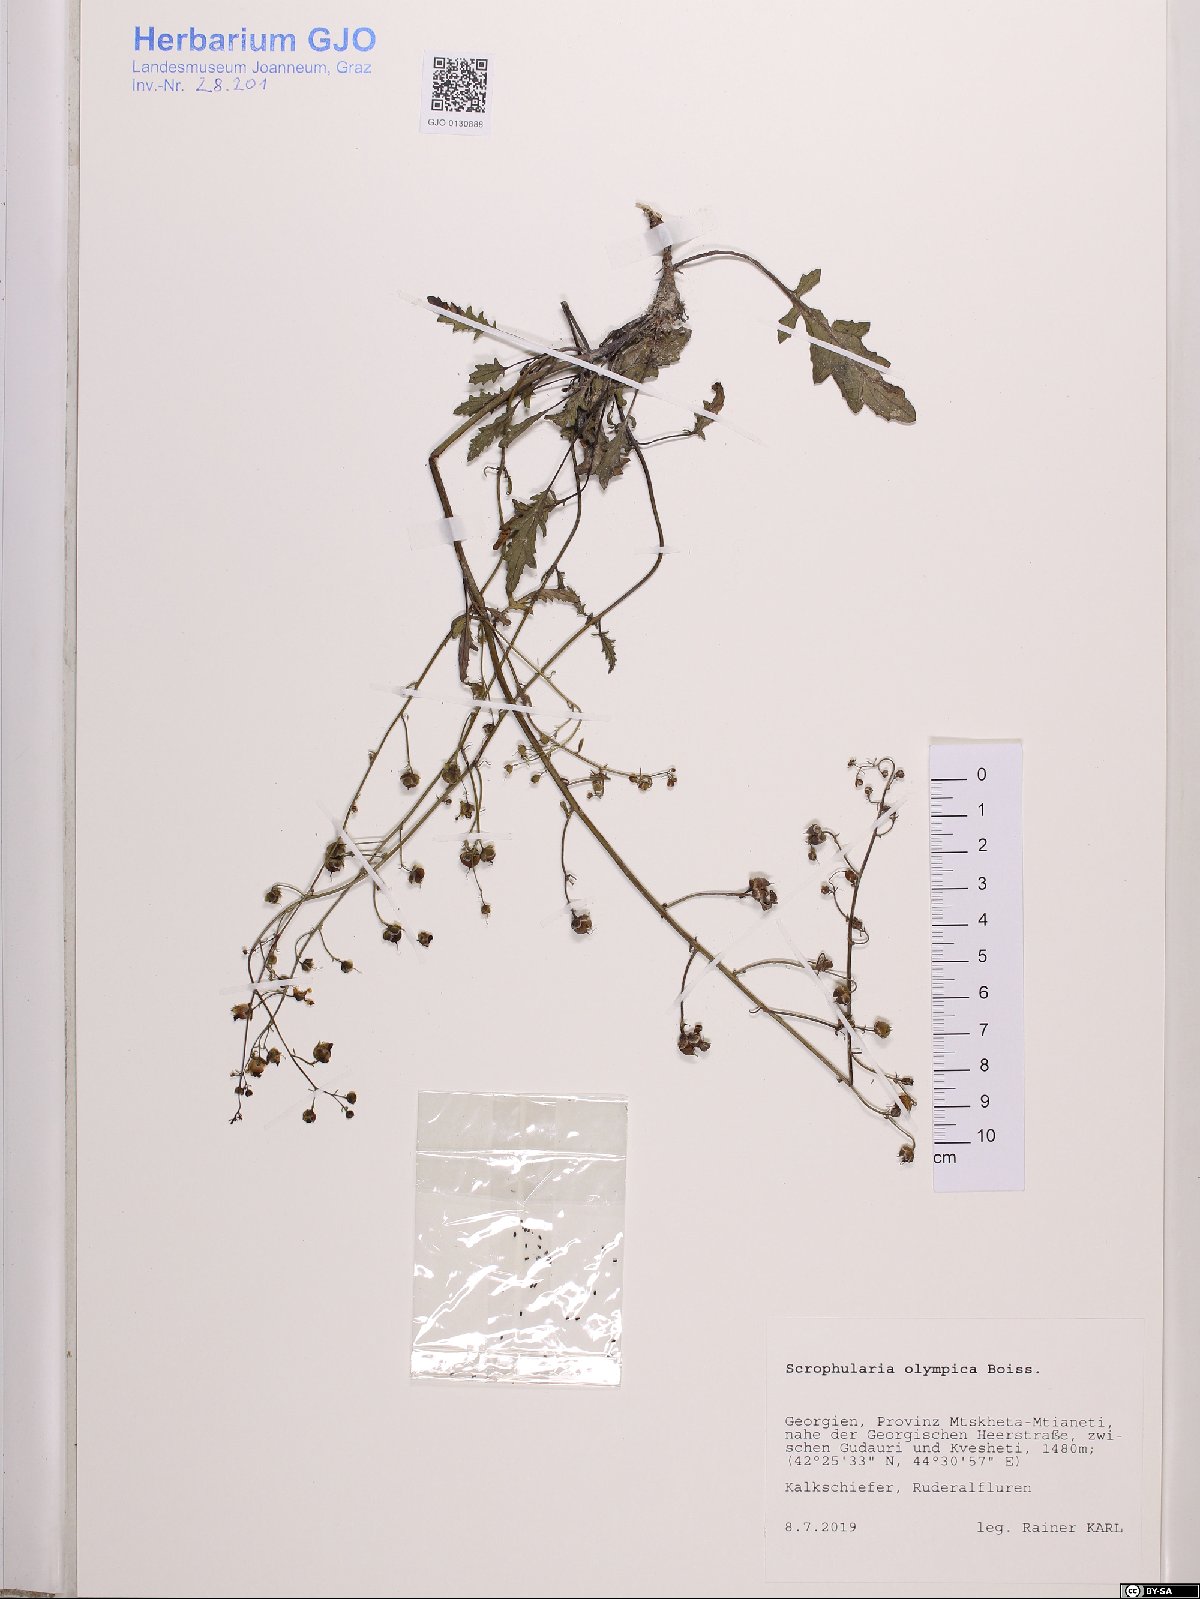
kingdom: Plantae
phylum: Tracheophyta
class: Magnoliopsida
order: Lamiales
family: Scrophulariaceae
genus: Scrophularia
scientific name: Scrophularia olympica
